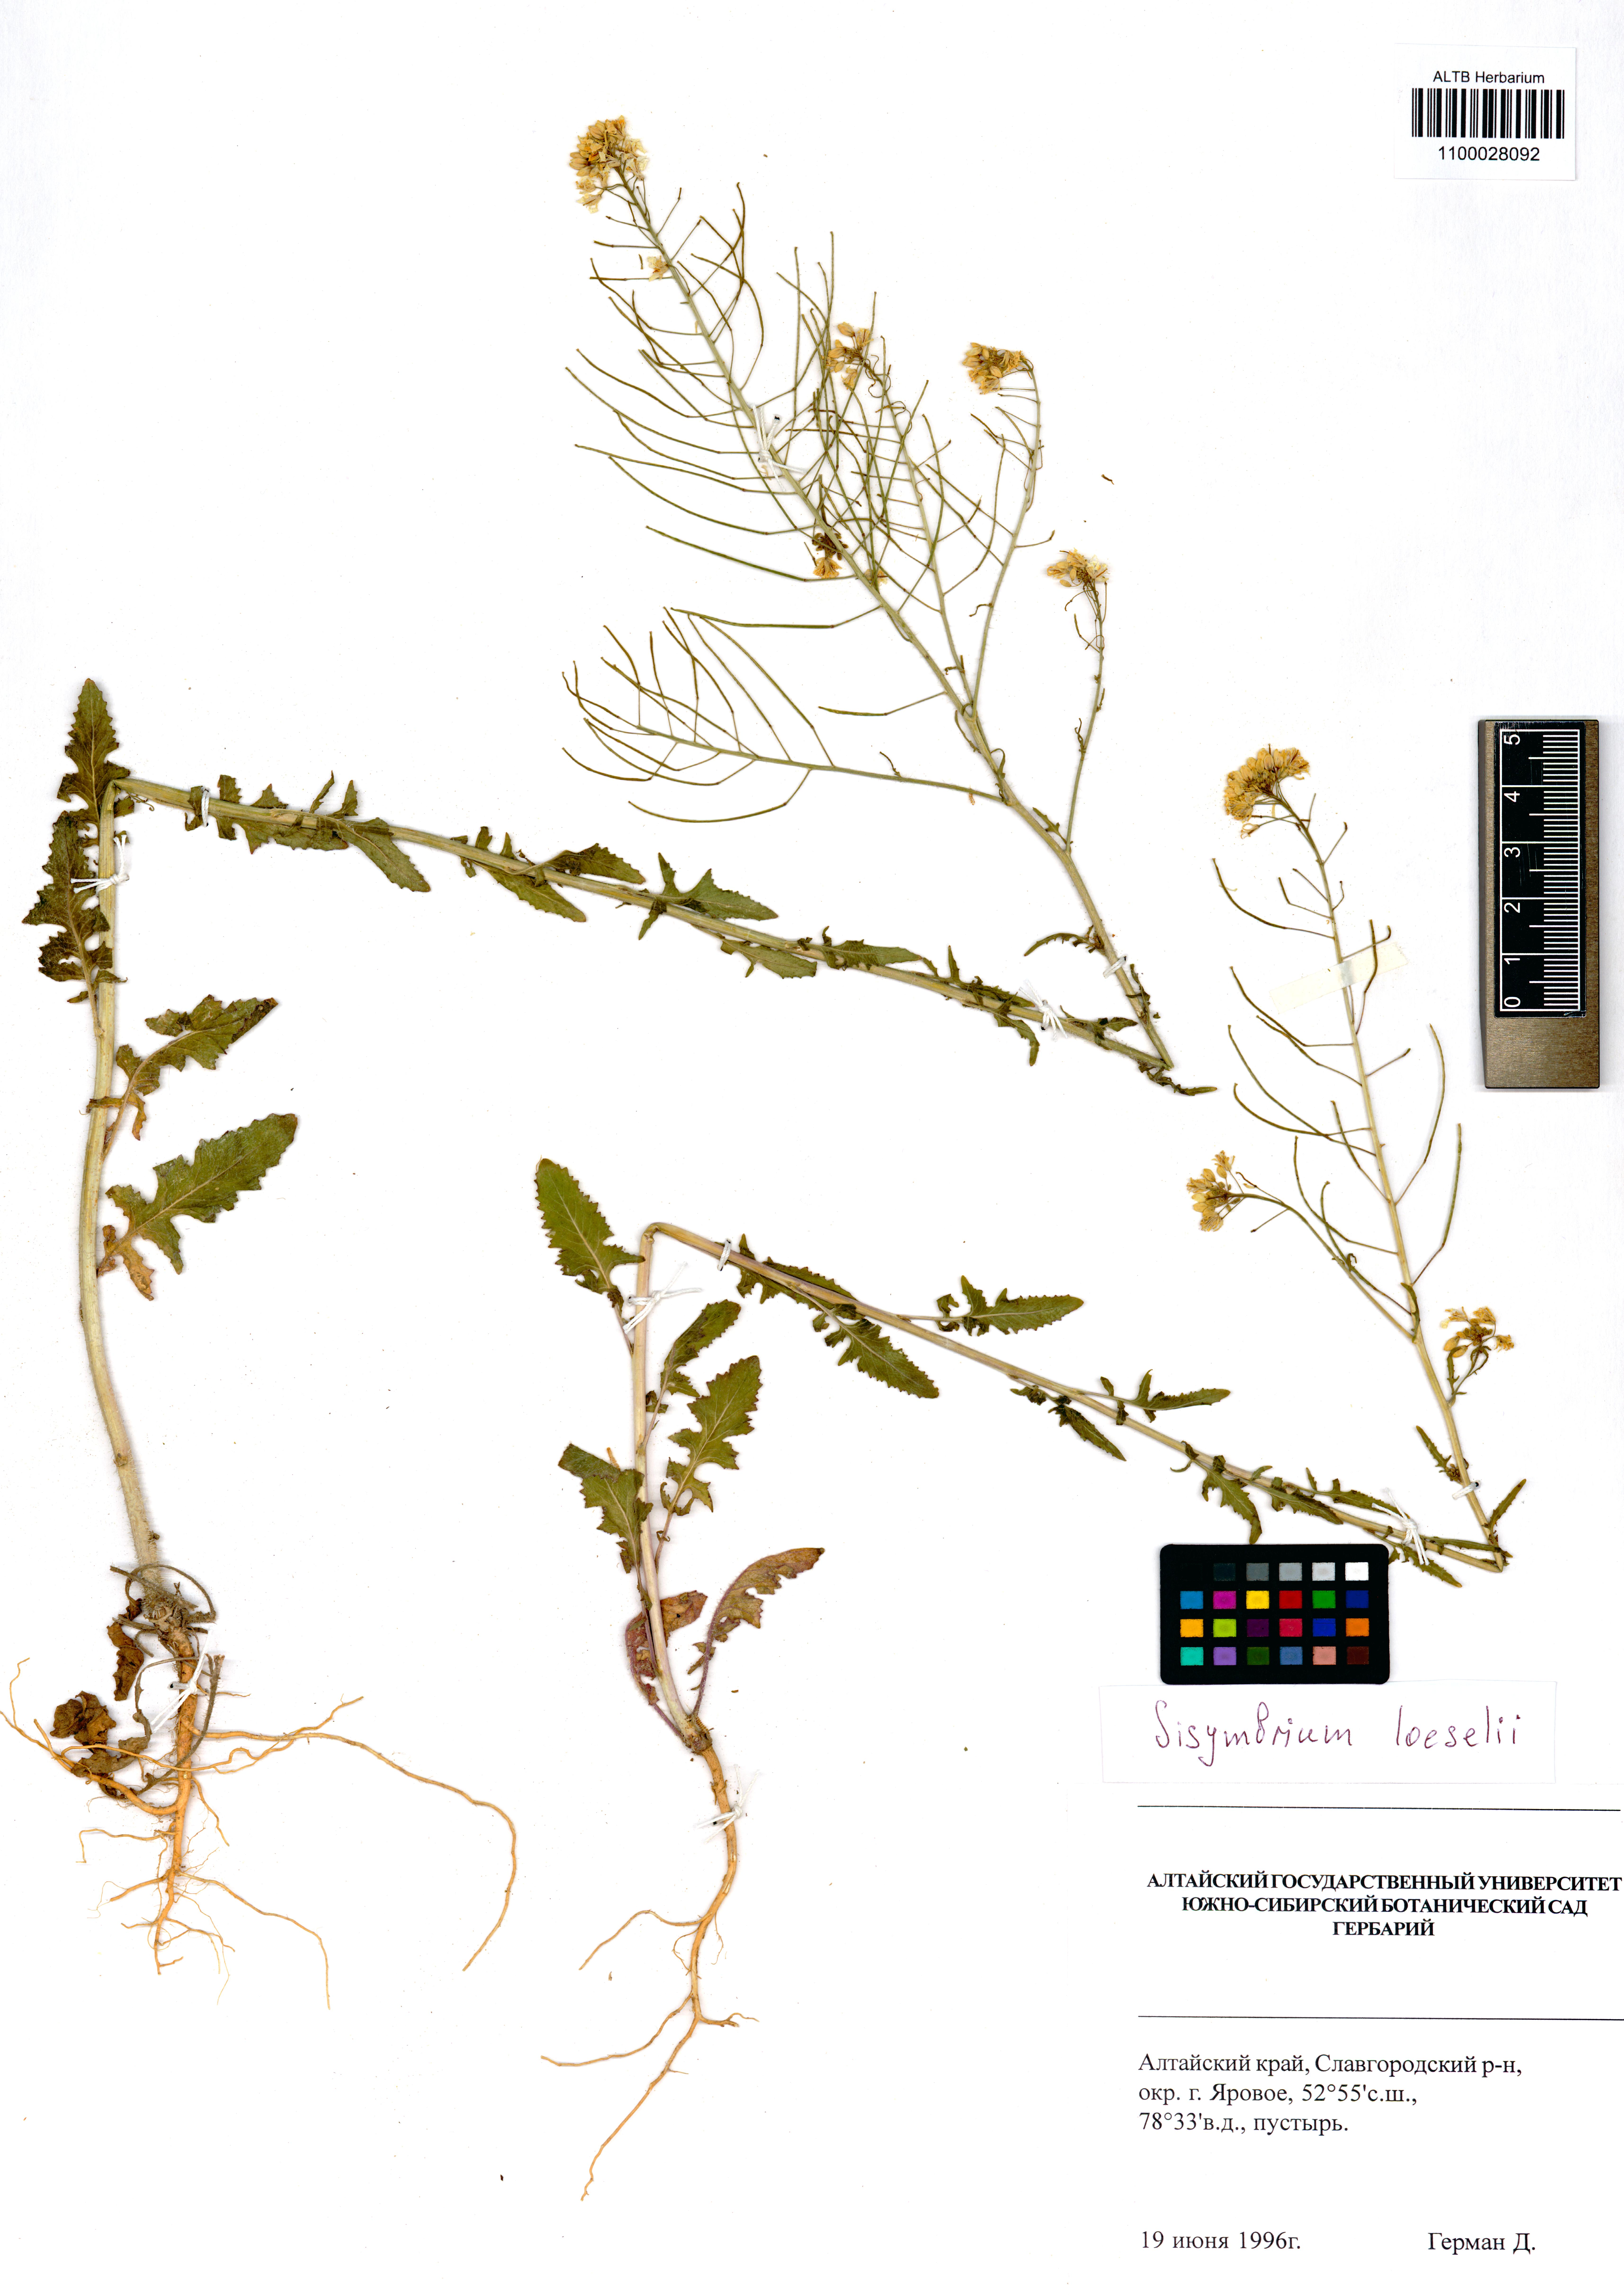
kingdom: Plantae
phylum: Tracheophyta
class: Magnoliopsida
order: Brassicales
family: Brassicaceae
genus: Sisymbrium
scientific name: Sisymbrium loeselii
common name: False london-rocket
